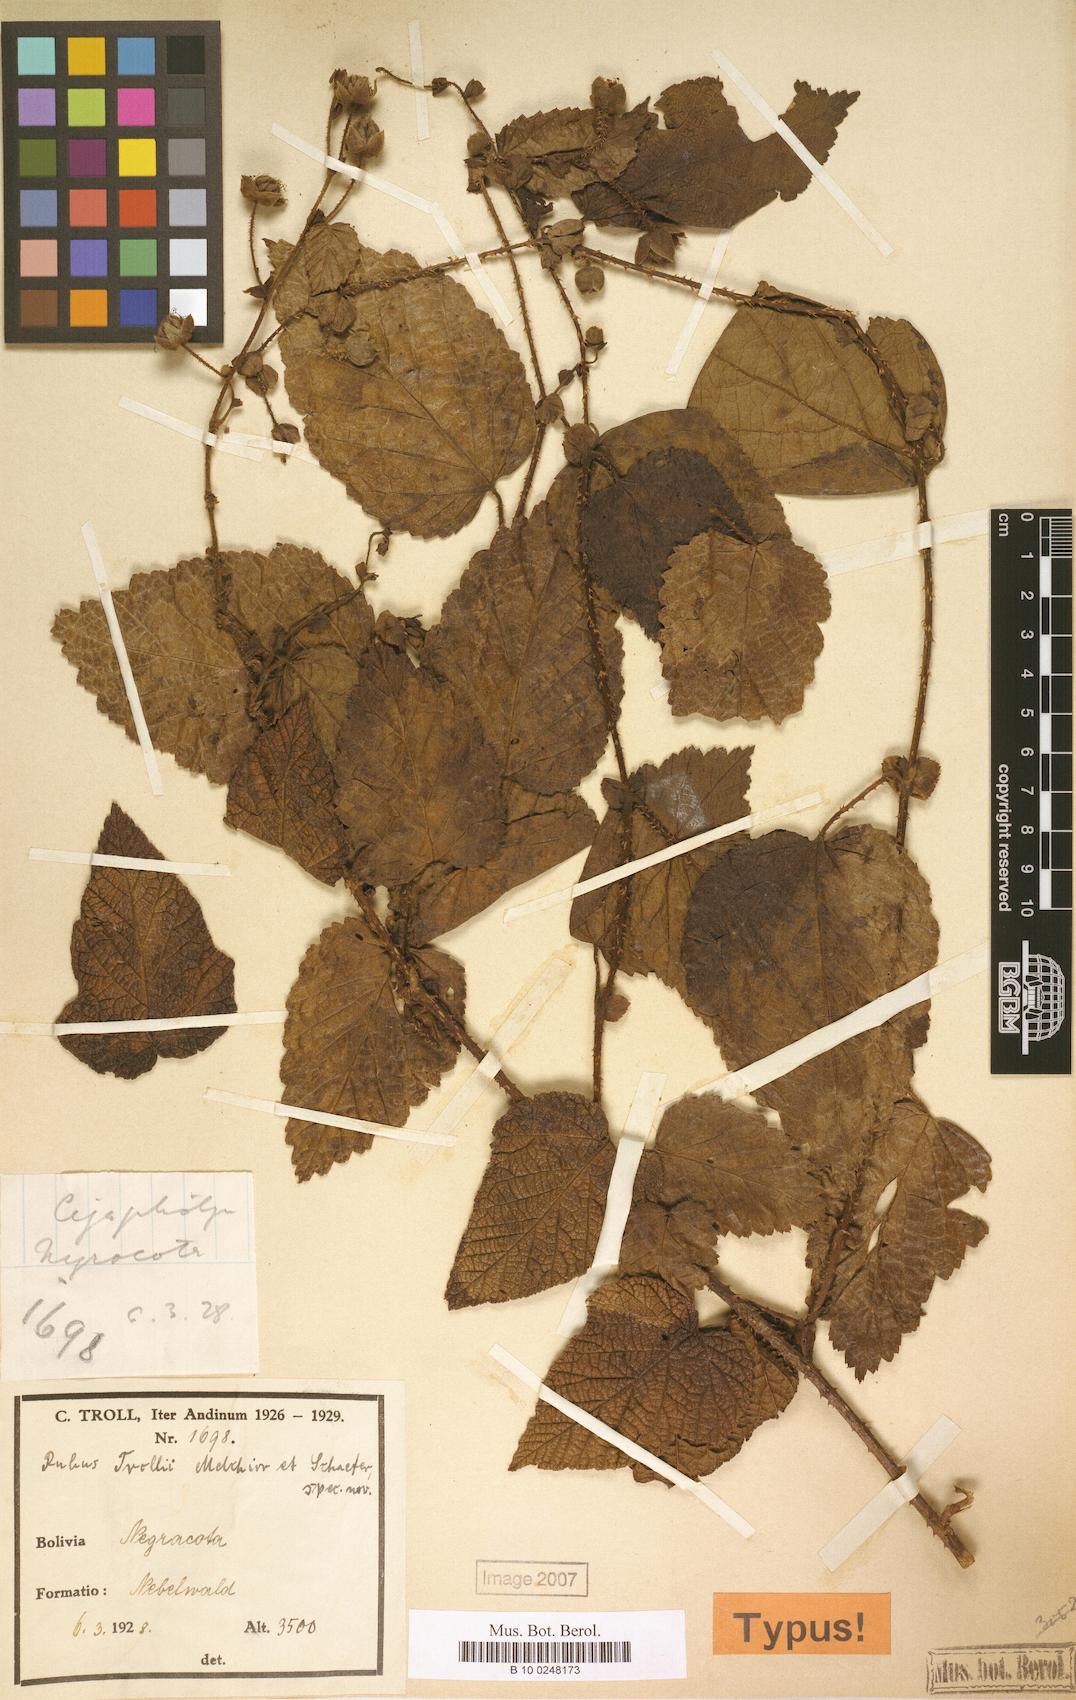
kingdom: Plantae
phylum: Tracheophyta
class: Magnoliopsida
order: Rosales
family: Rosaceae
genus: Rubus
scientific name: Rubus
